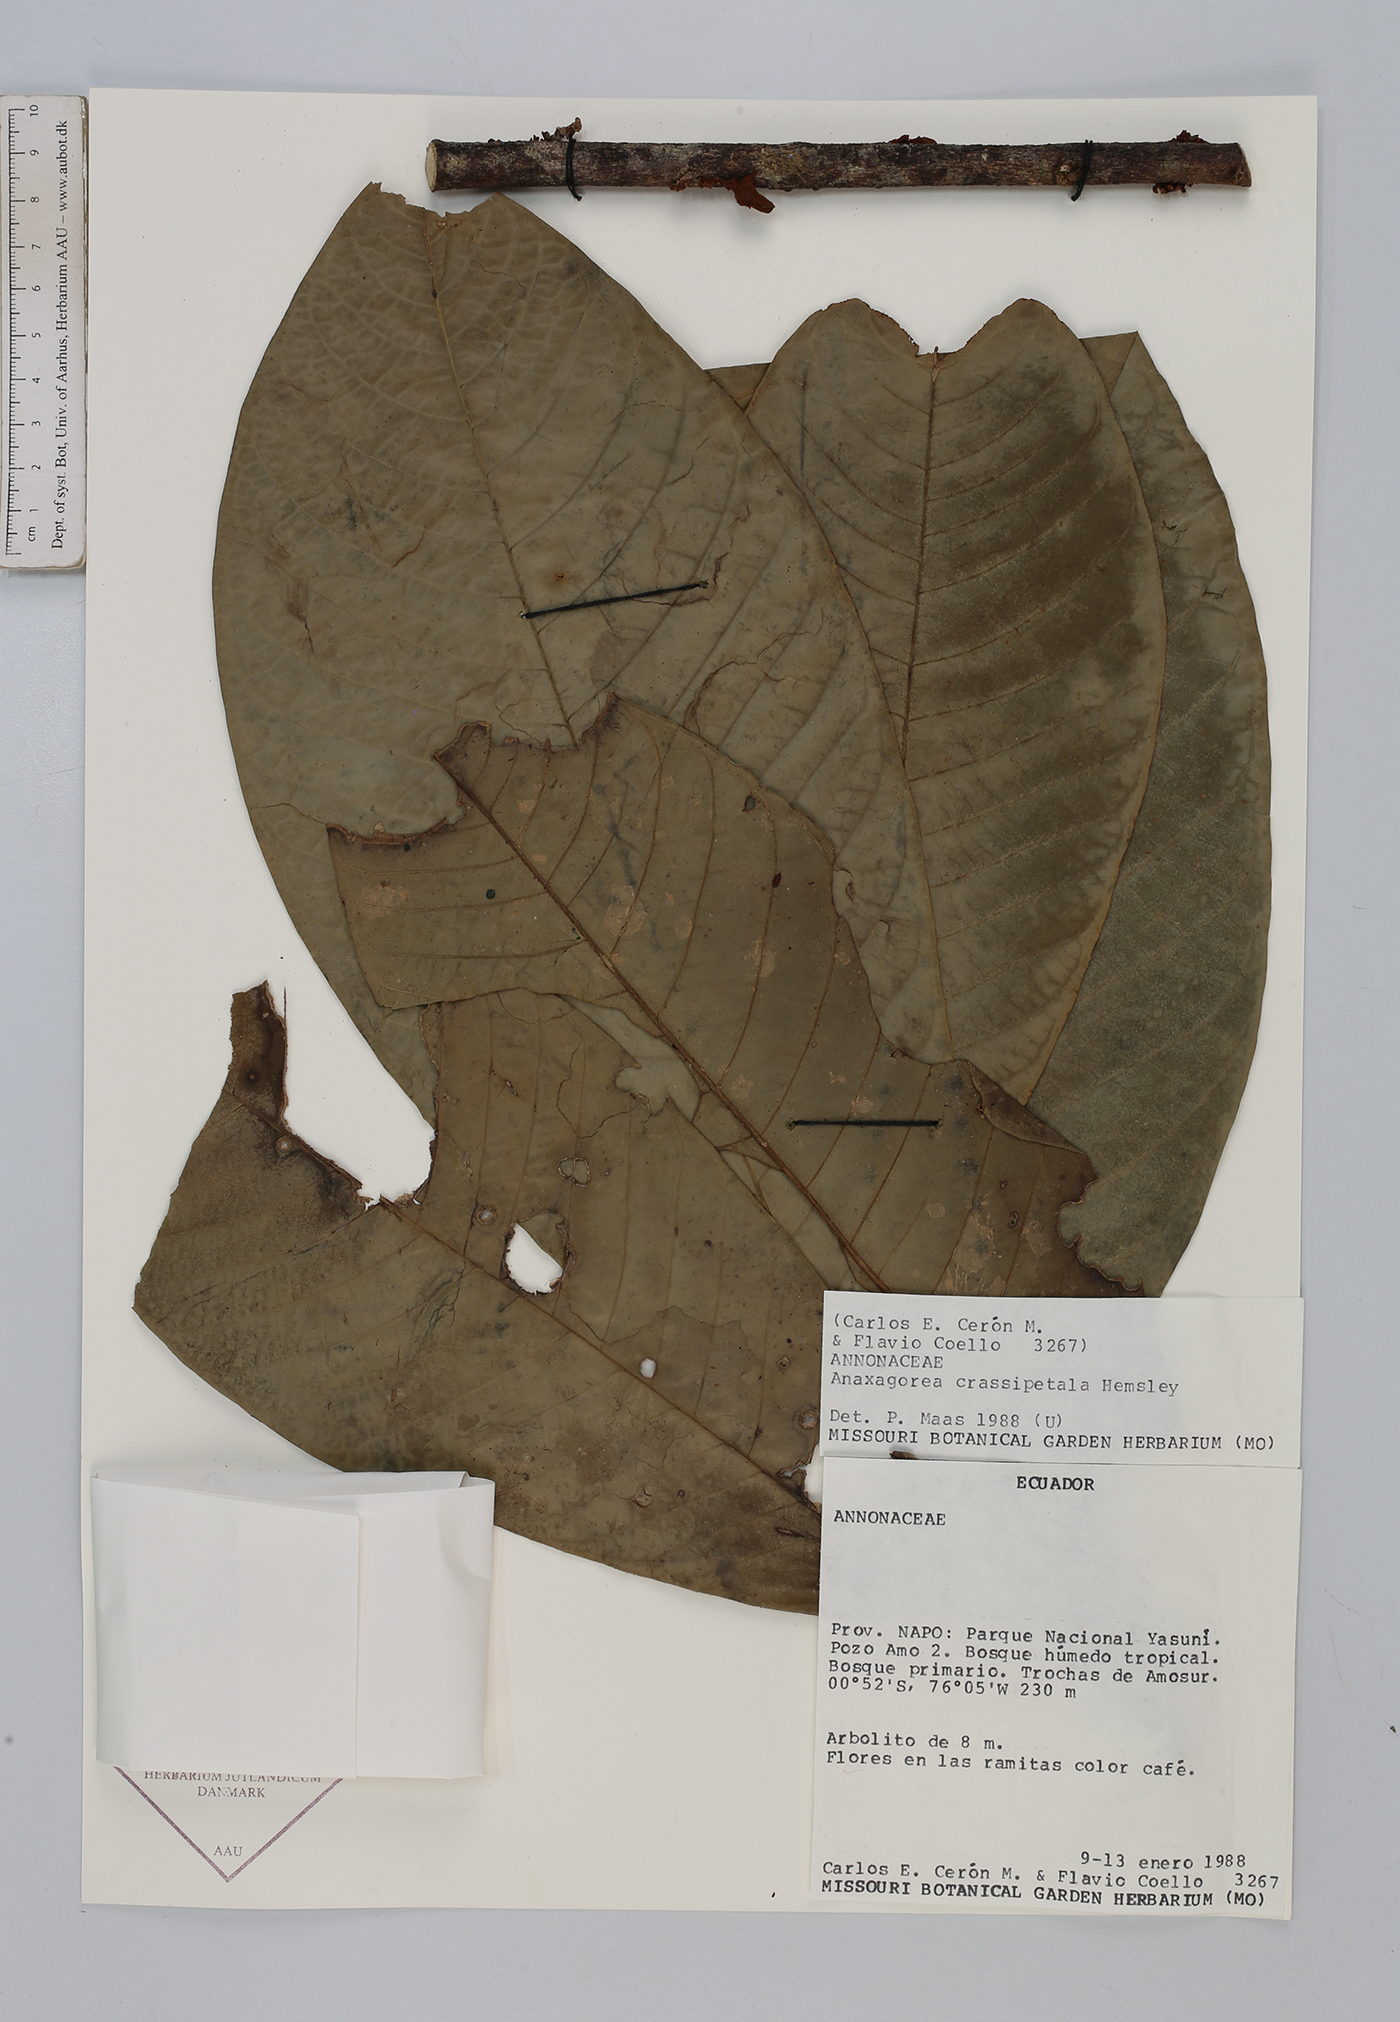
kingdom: Plantae
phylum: Tracheophyta
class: Magnoliopsida
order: Magnoliales
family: Annonaceae
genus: Anaxagorea
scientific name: Anaxagorea crassipetala
